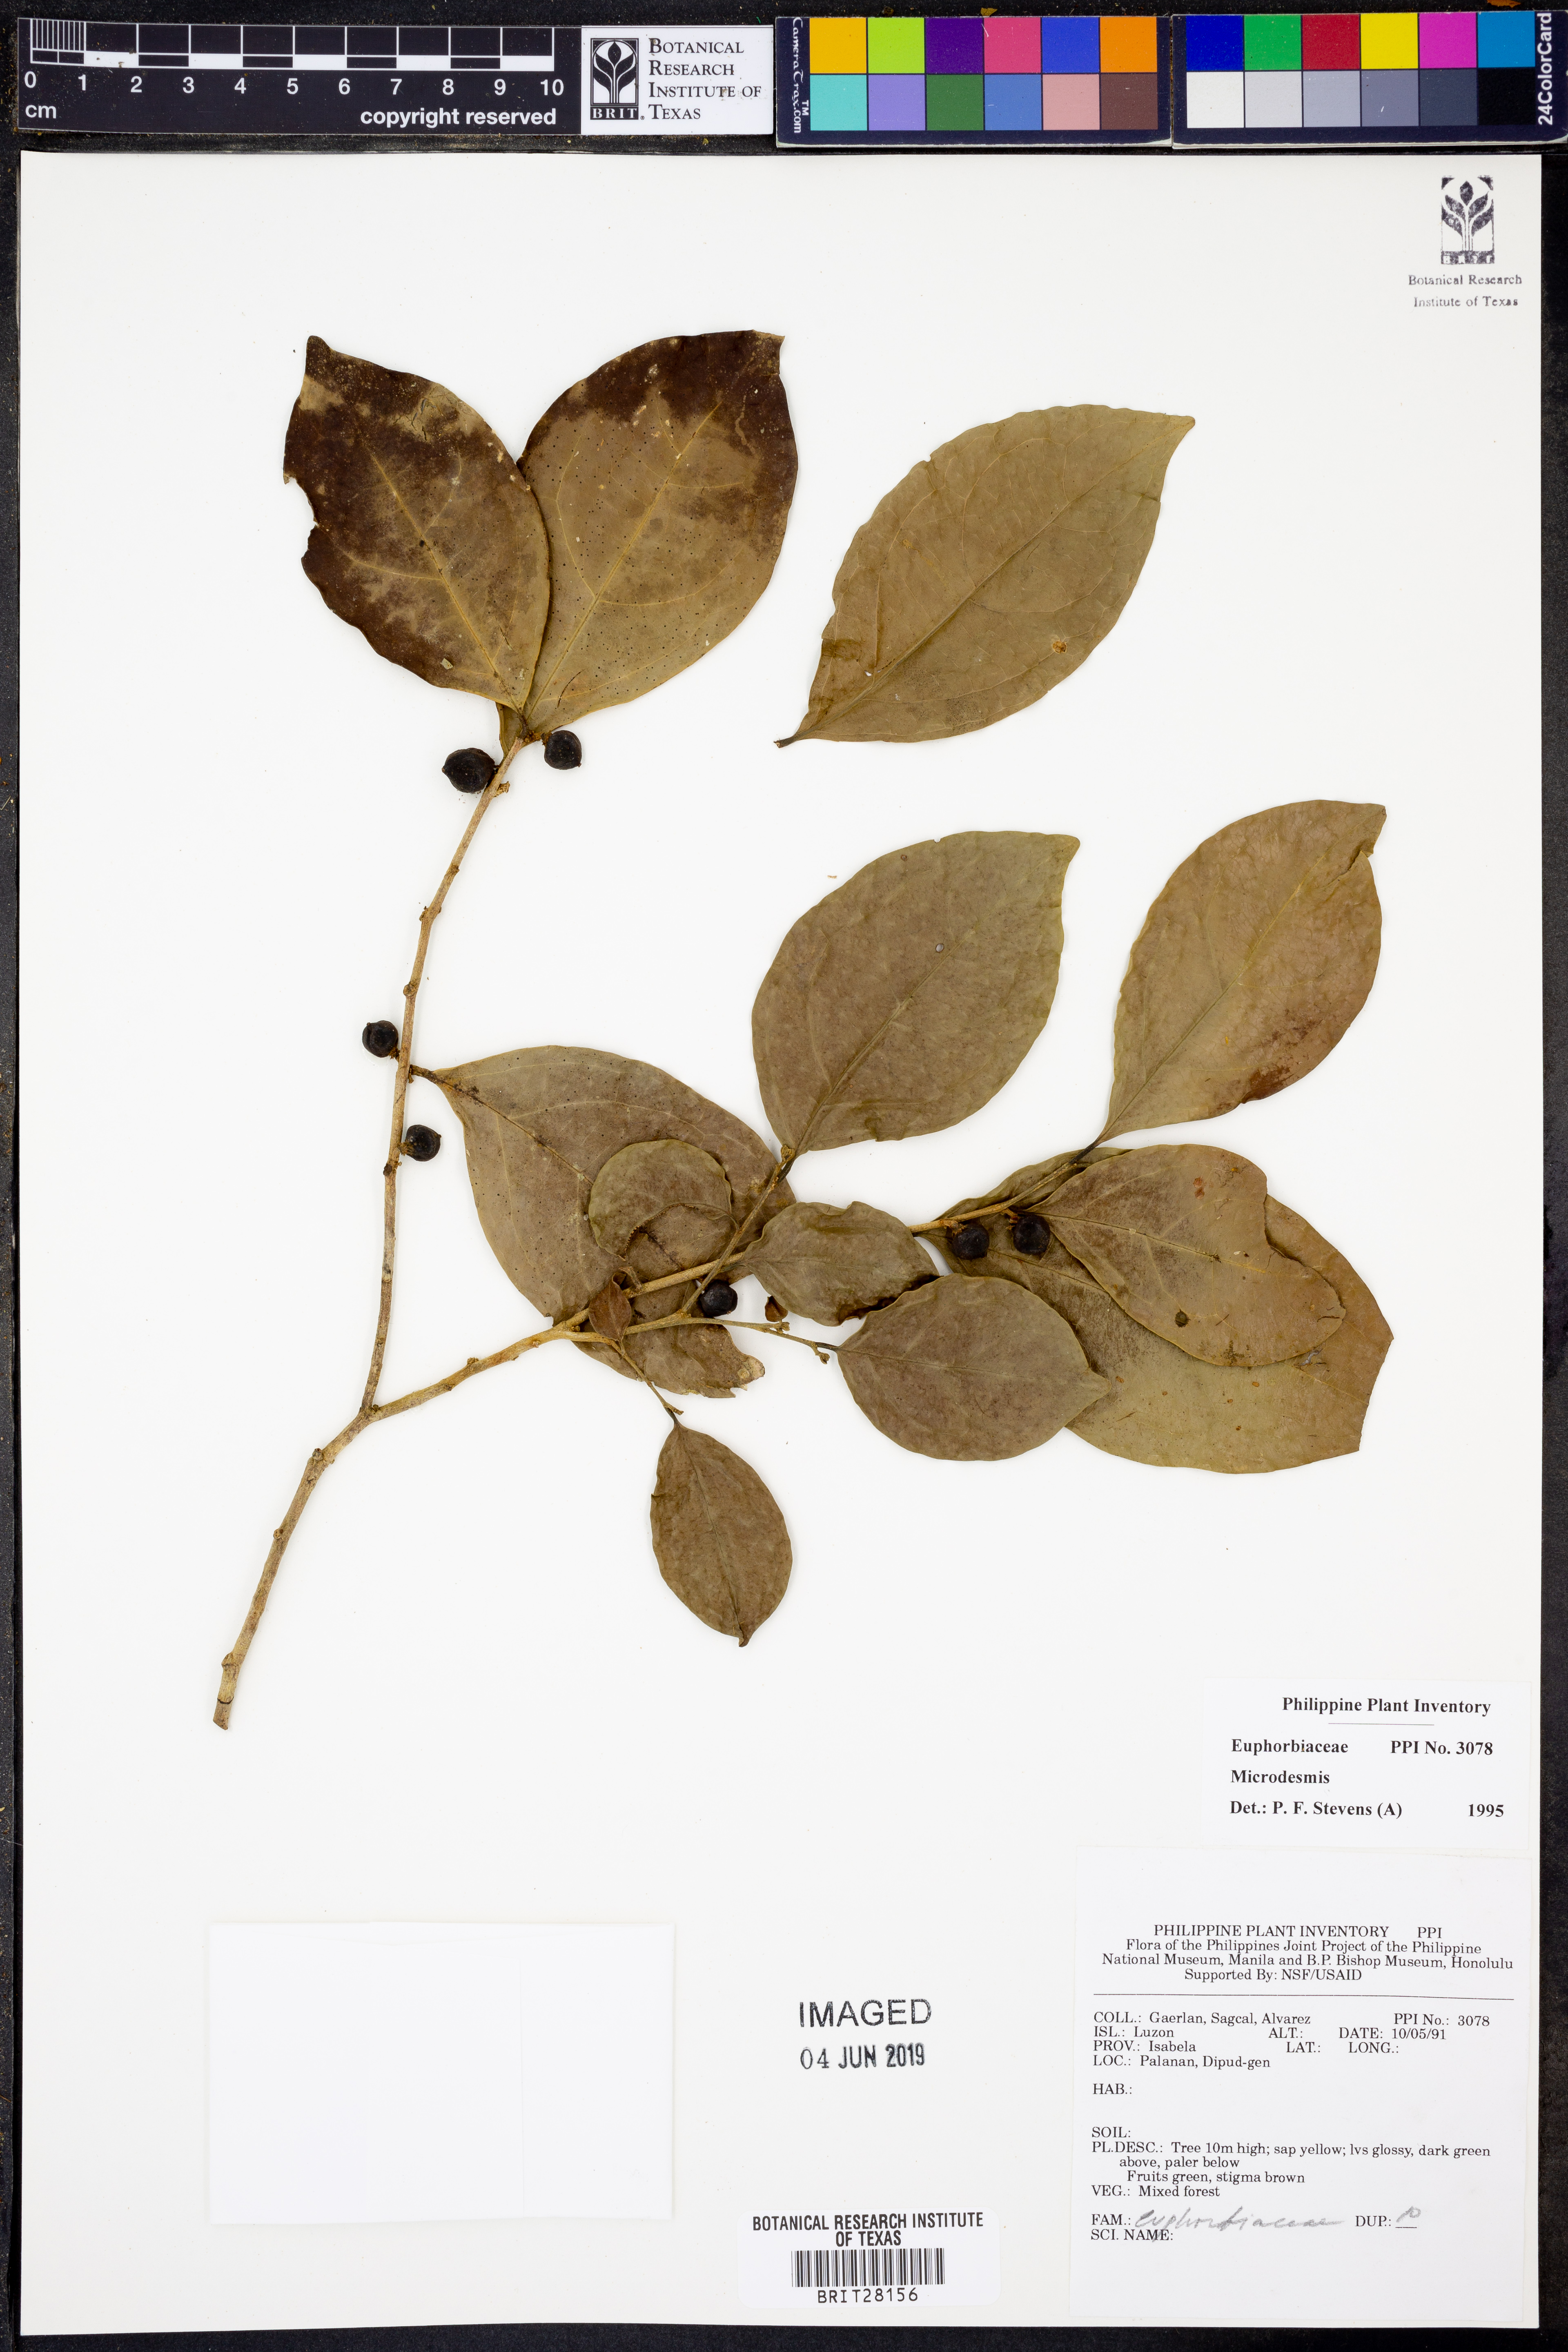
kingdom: Plantae
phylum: Tracheophyta
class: Magnoliopsida
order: Malpighiales
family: Pandaceae
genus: Microdesmis
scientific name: Microdesmis
